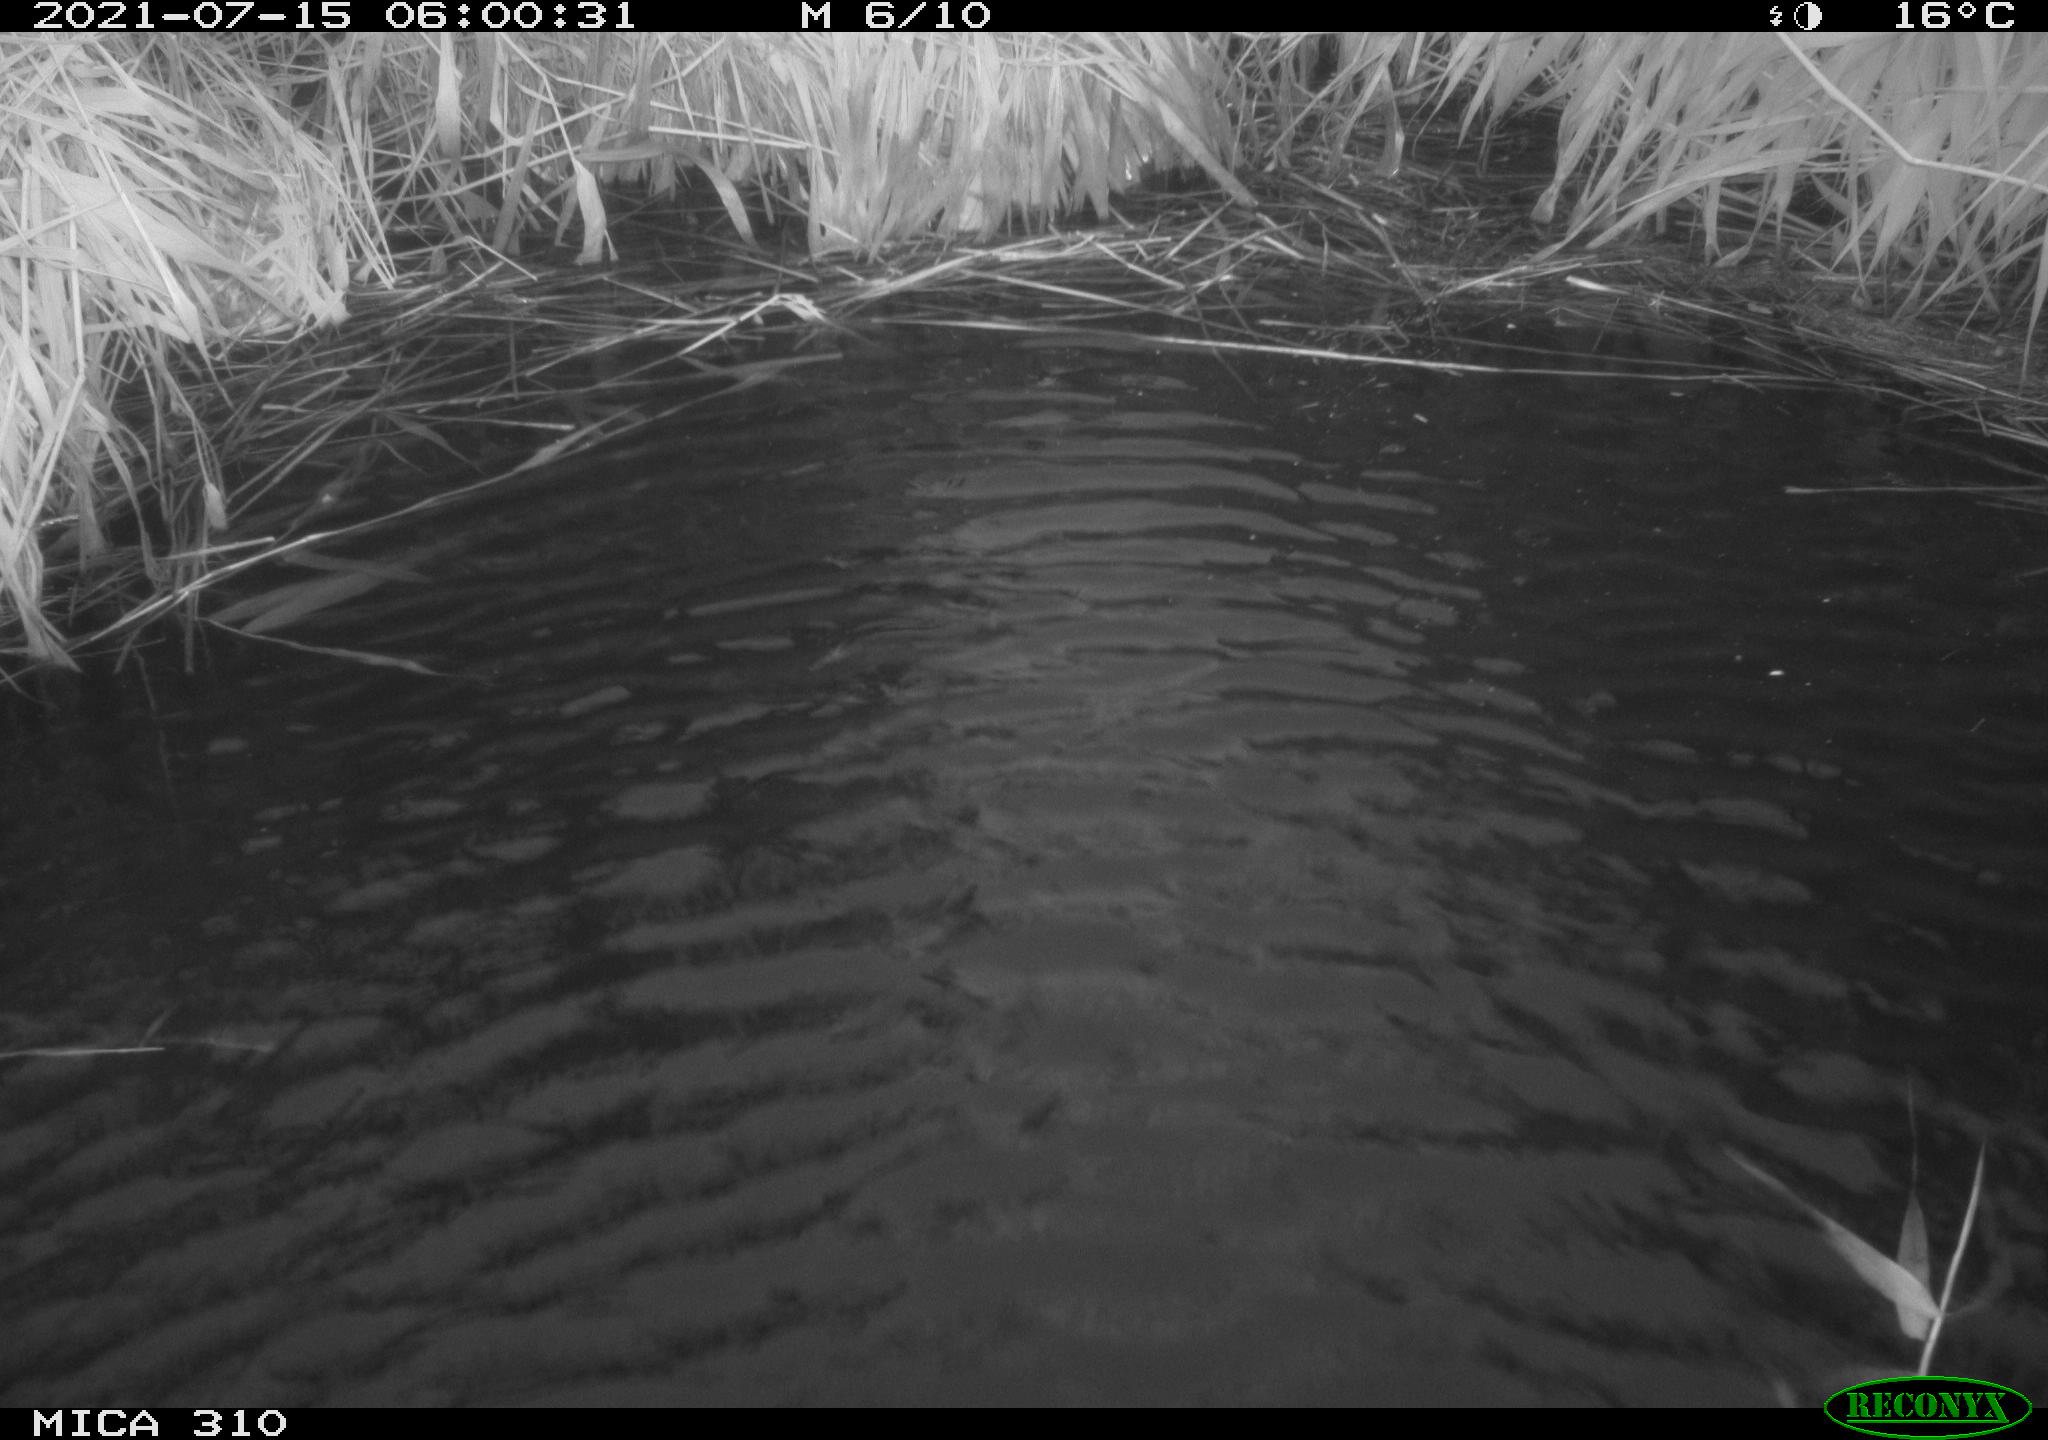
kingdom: Animalia
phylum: Chordata
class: Aves
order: Anseriformes
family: Anatidae
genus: Anas
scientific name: Anas platyrhynchos
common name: Mallard
